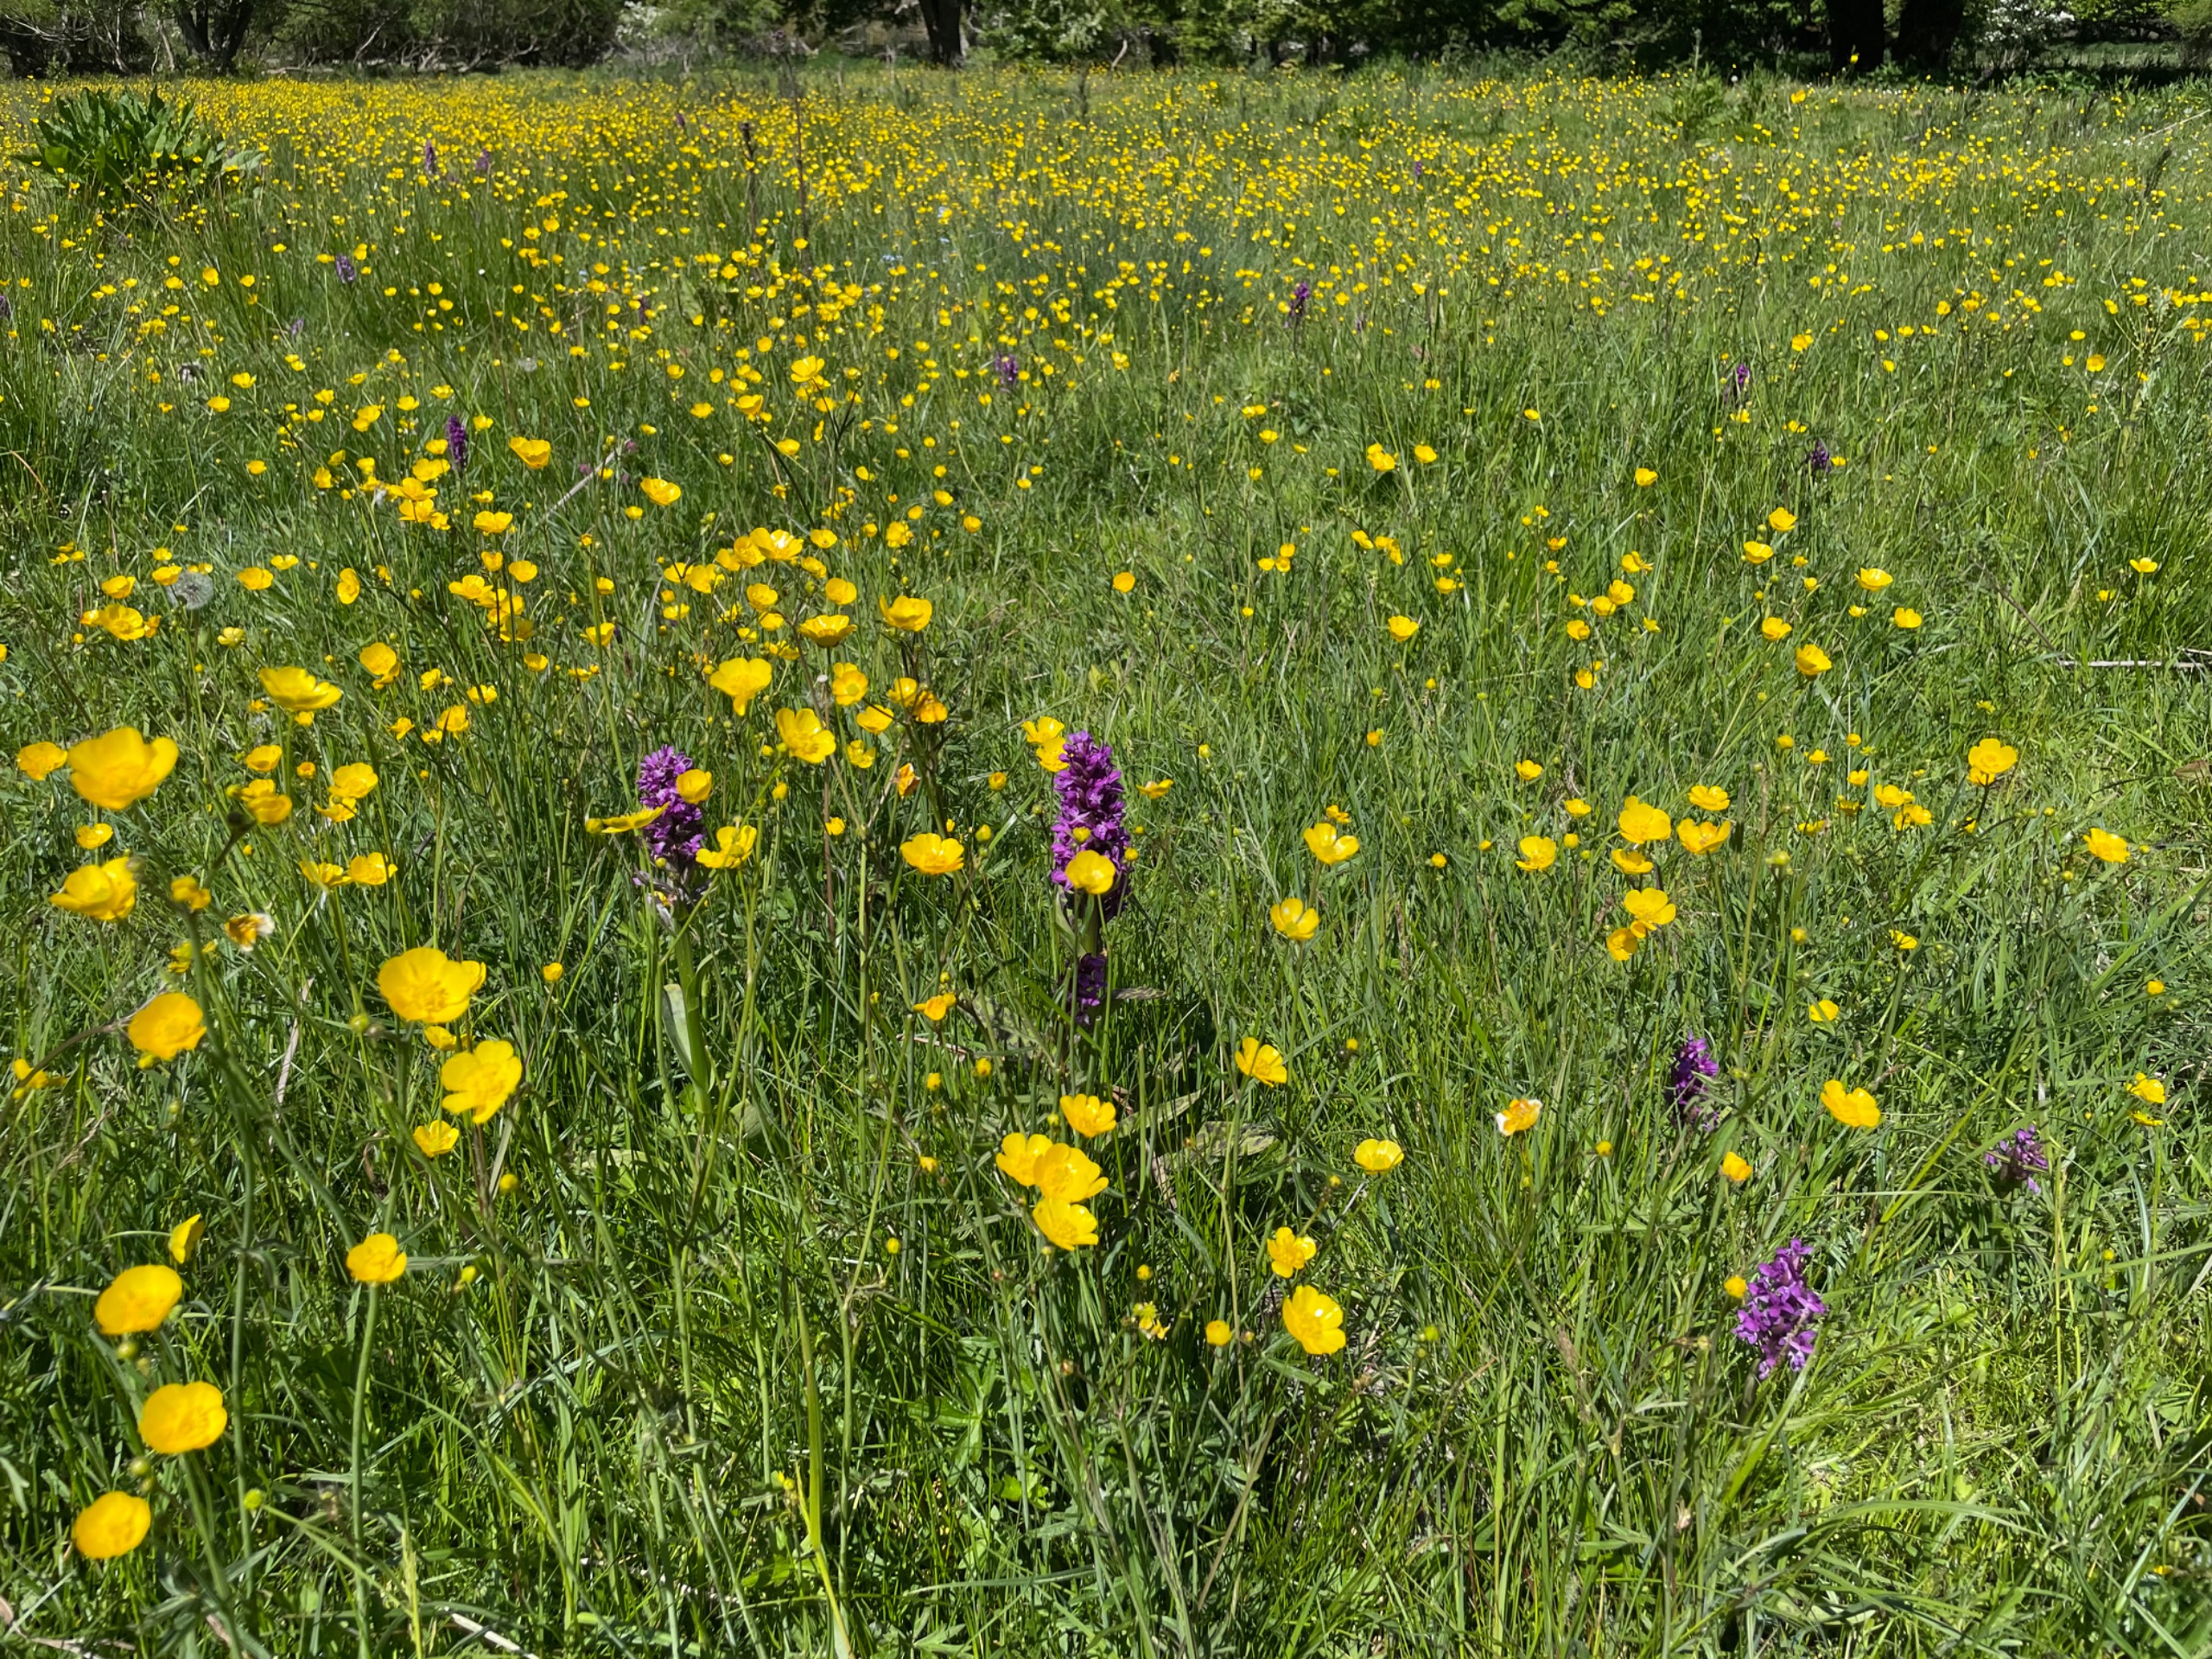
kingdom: Plantae
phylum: Tracheophyta
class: Liliopsida
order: Asparagales
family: Orchidaceae
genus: Dactylorhiza
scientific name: Dactylorhiza majalis
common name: Maj-gøgeurt
